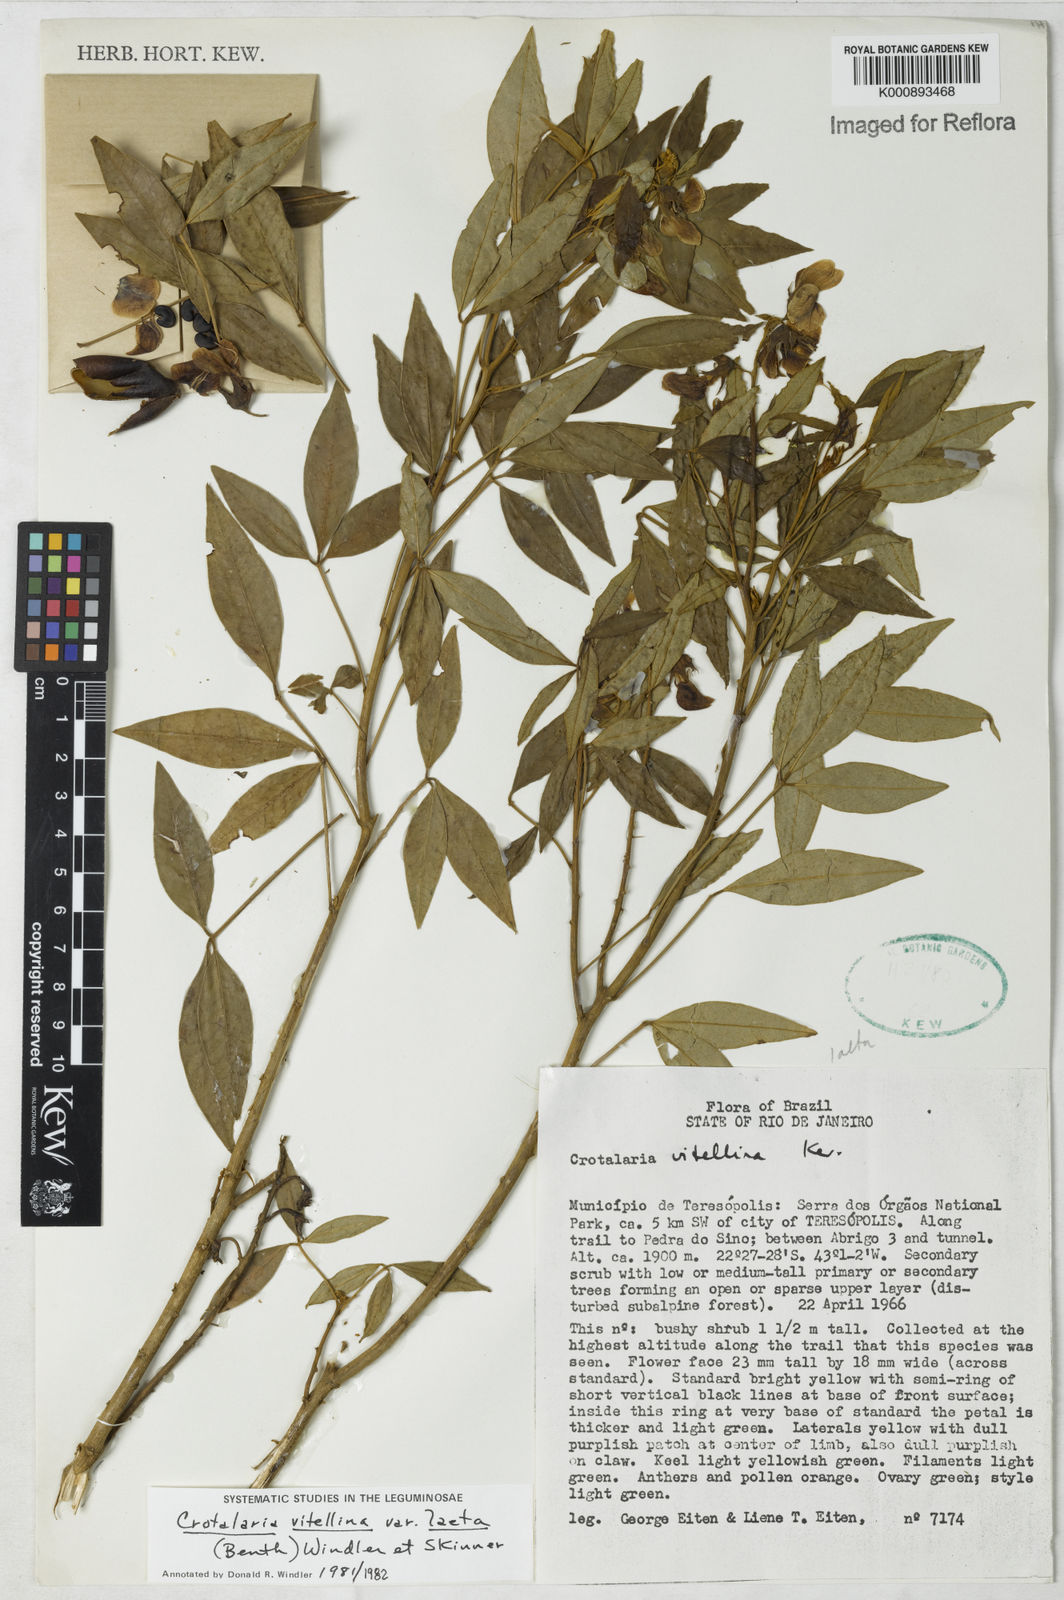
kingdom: Plantae
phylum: Tracheophyta
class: Magnoliopsida
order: Fabales
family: Fabaceae
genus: Crotalaria
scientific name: Crotalaria laeta
